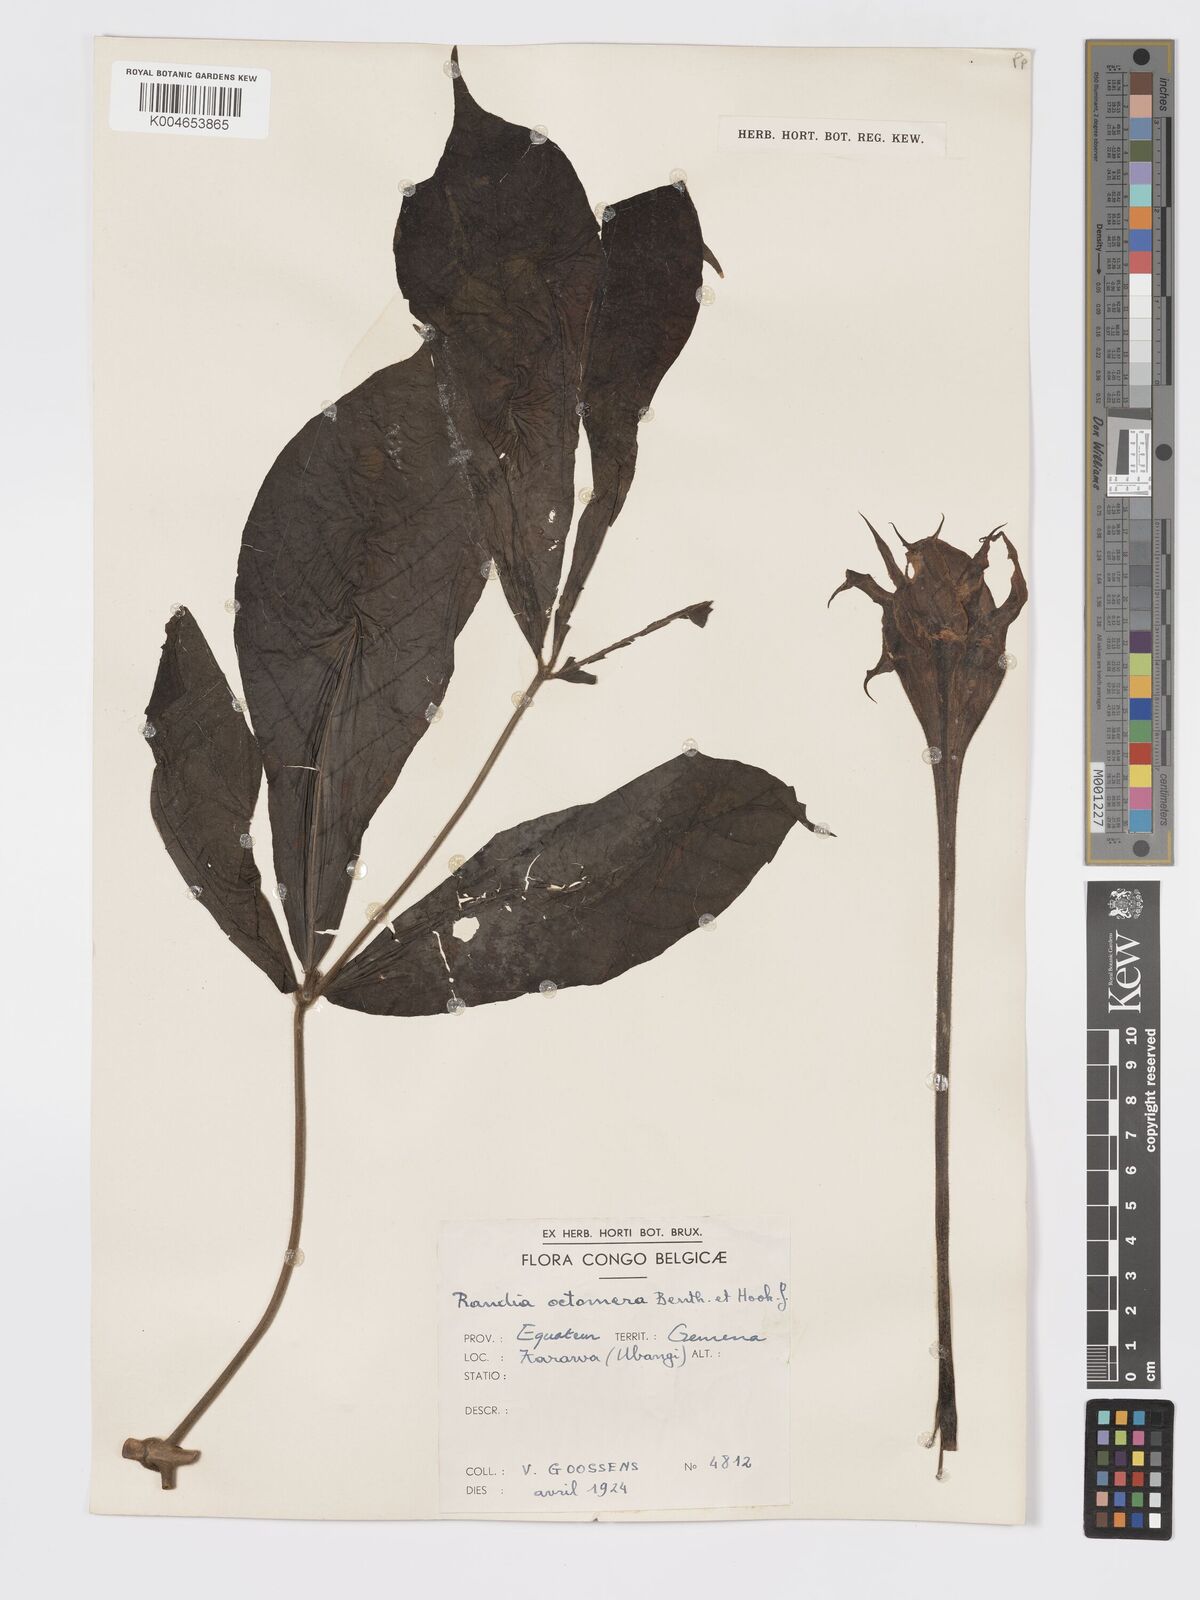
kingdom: Plantae
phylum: Tracheophyta
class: Magnoliopsida
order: Gentianales
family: Rubiaceae
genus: Rothmannia
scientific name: Rothmannia octomera
